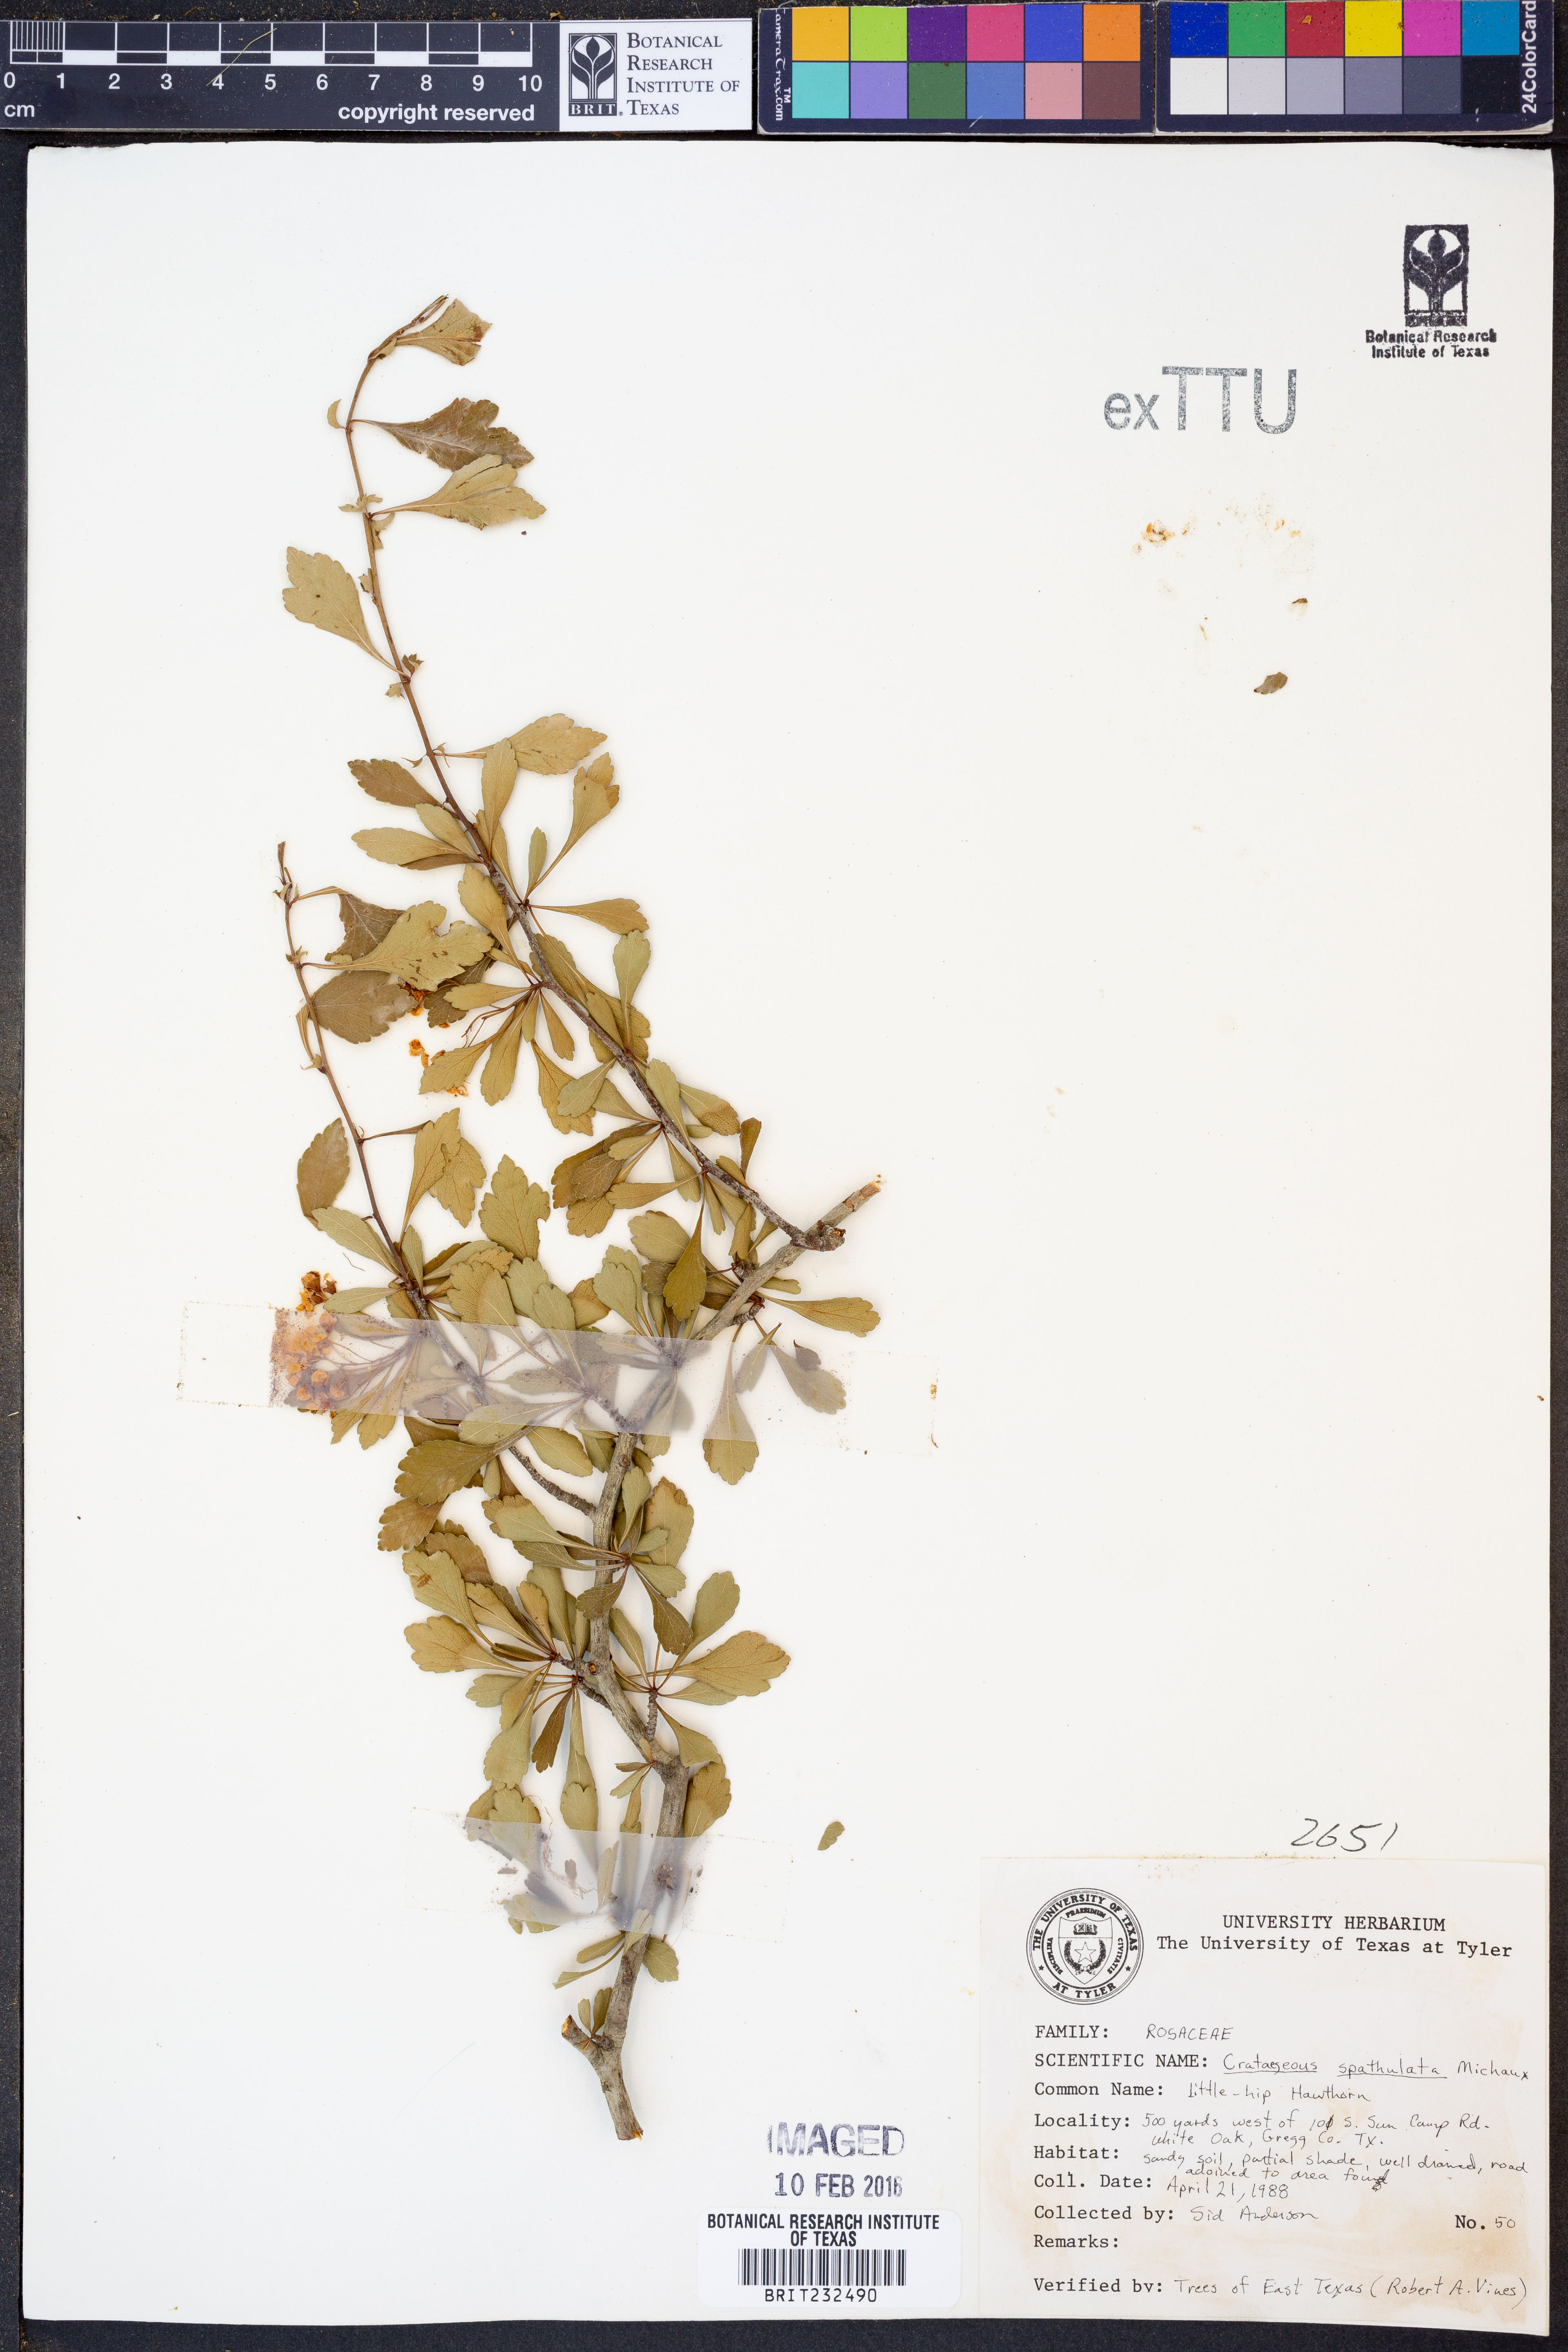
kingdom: Plantae
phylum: Tracheophyta
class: Magnoliopsida
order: Rosales
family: Rosaceae
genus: Crataegus
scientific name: Crataegus spathulata
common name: Littlehip hawthorn
